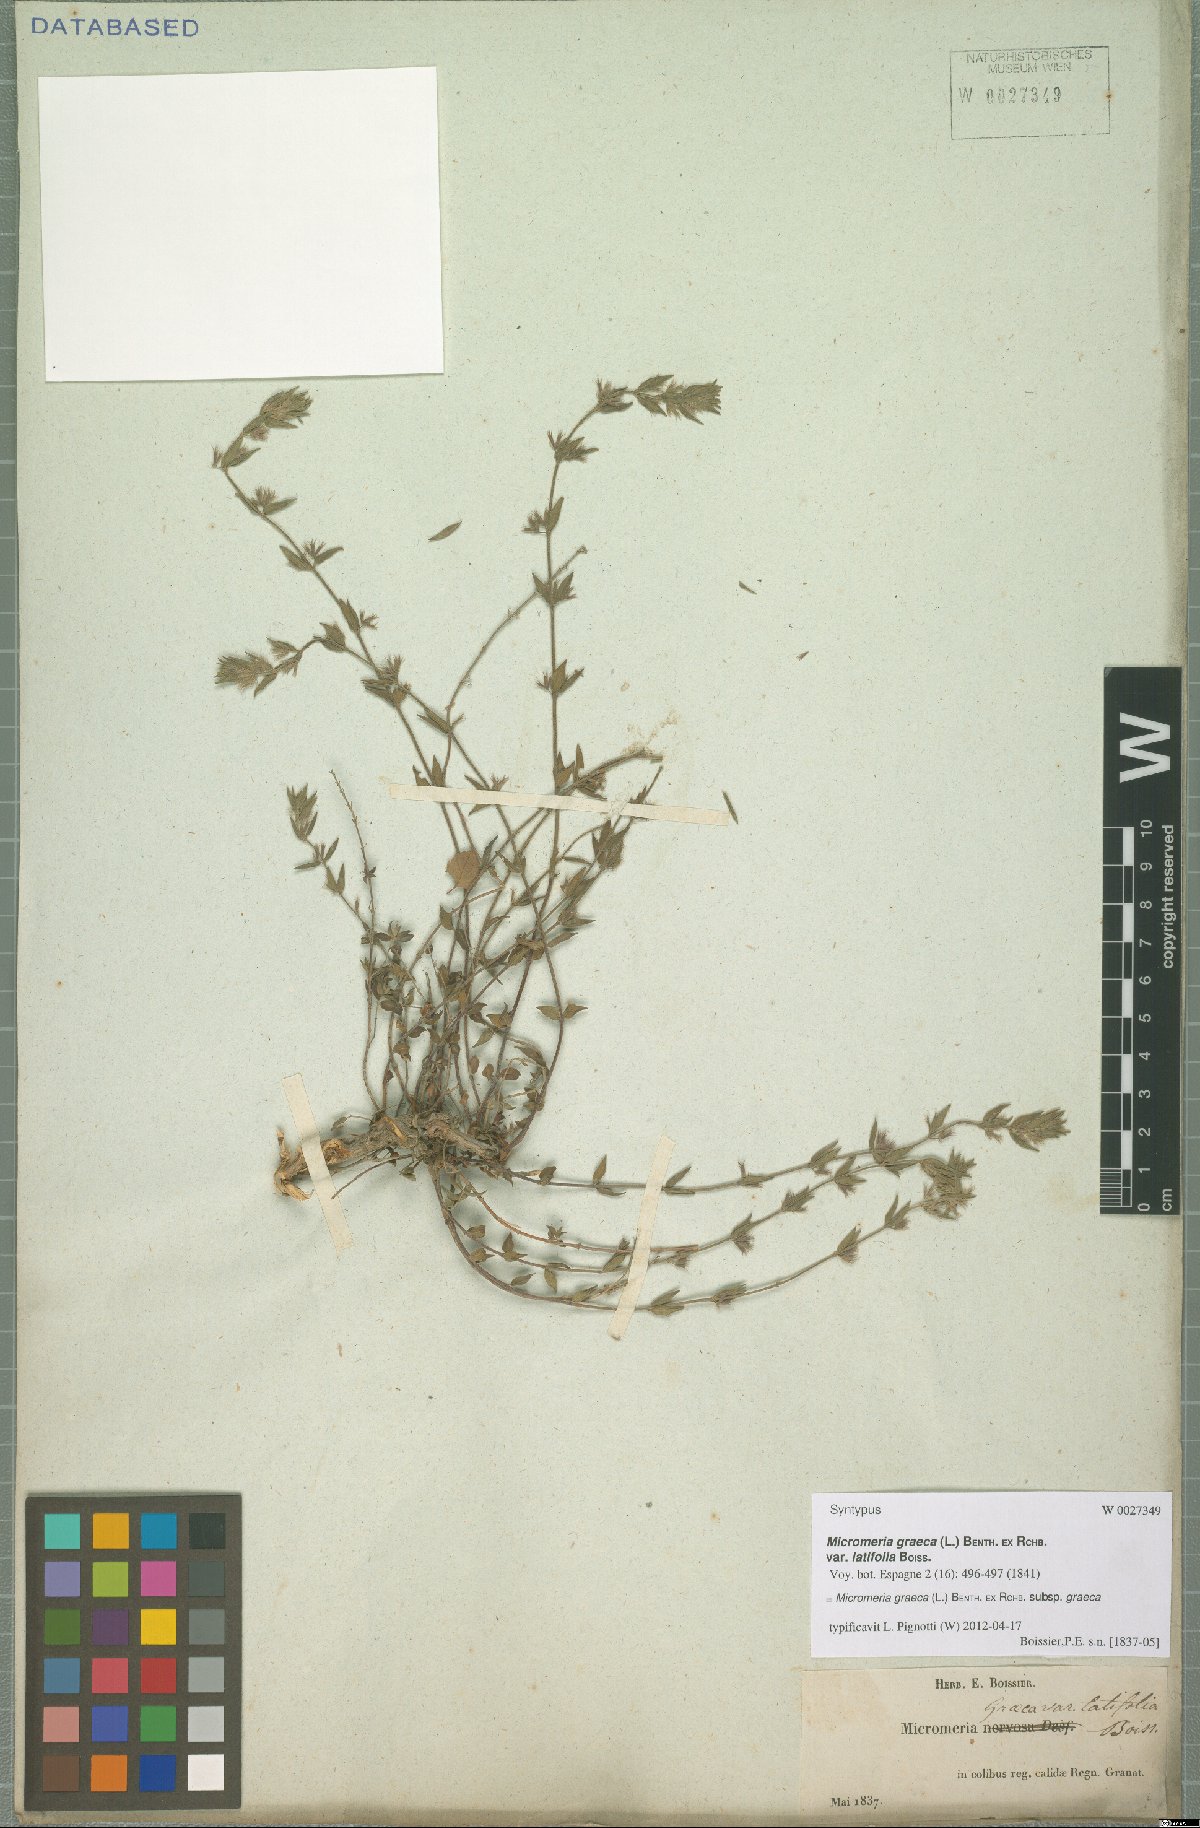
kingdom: Plantae
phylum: Tracheophyta
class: Magnoliopsida
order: Lamiales
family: Lamiaceae
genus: Micromeria
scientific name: Micromeria graeca
